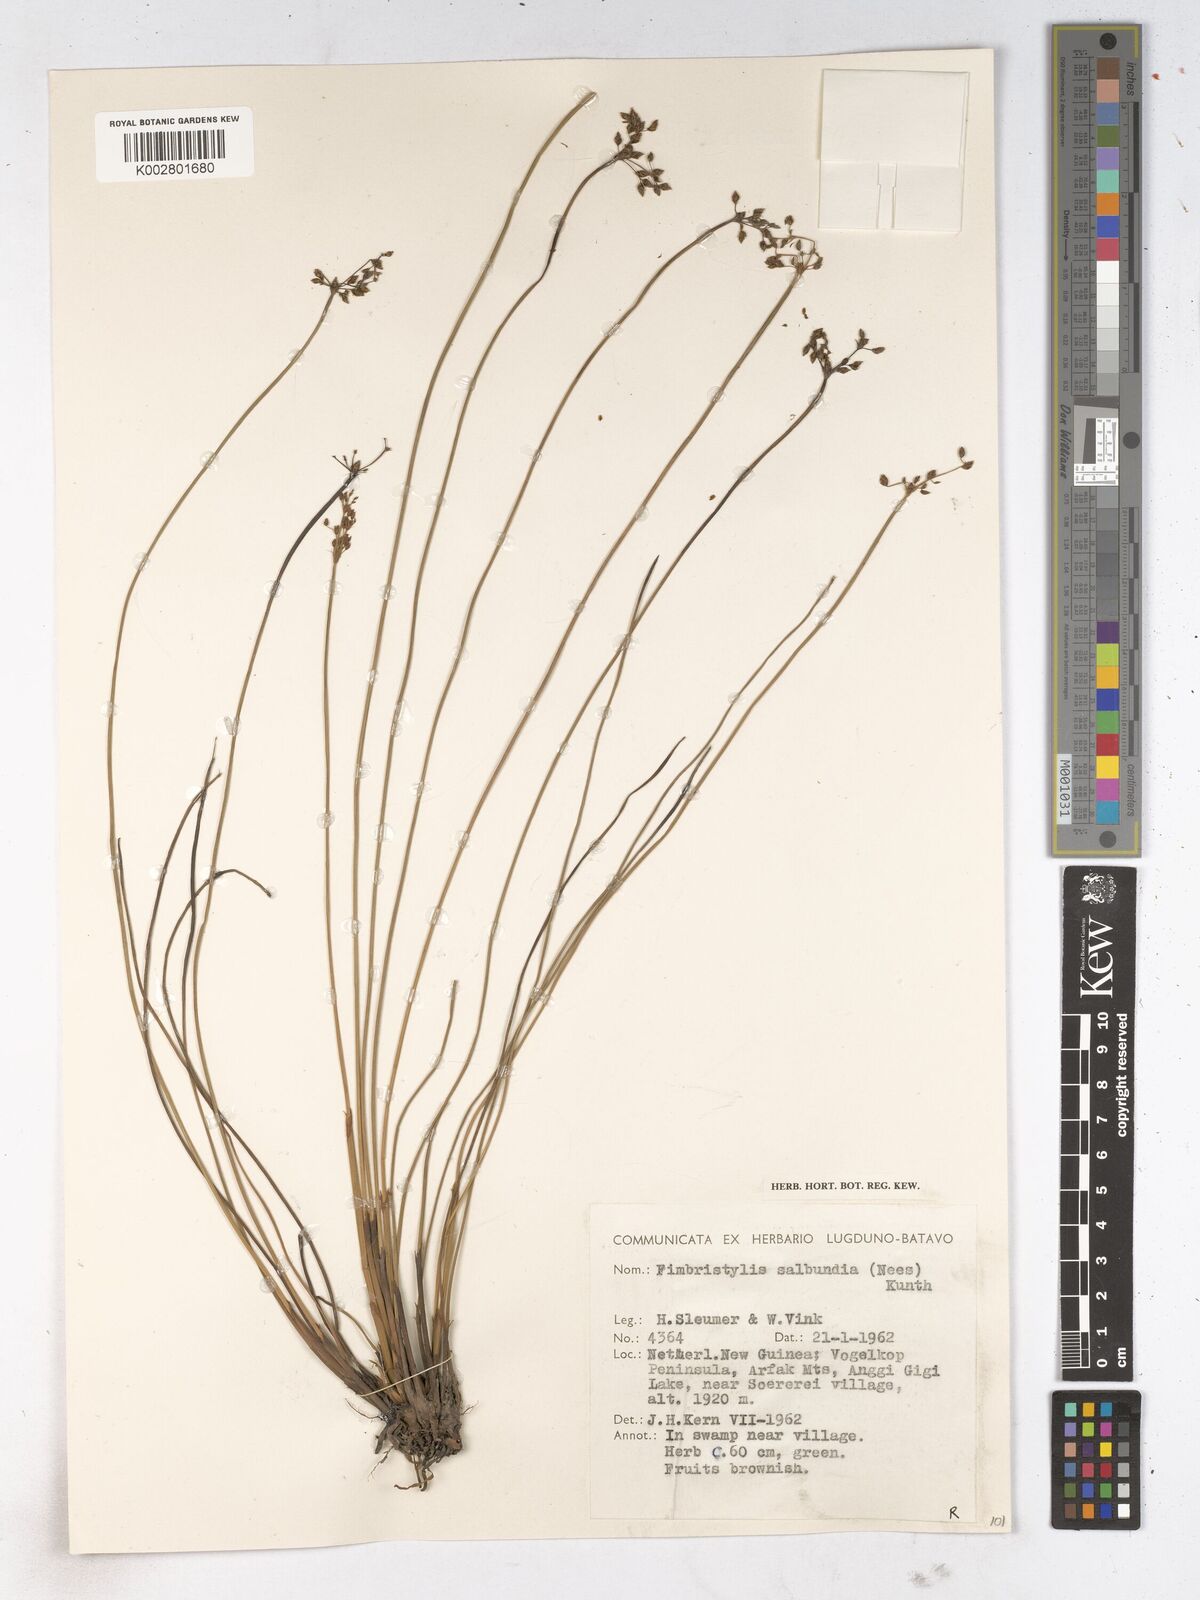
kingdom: Plantae
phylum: Tracheophyta
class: Liliopsida
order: Poales
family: Cyperaceae
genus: Fimbristylis
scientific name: Fimbristylis salbundia
